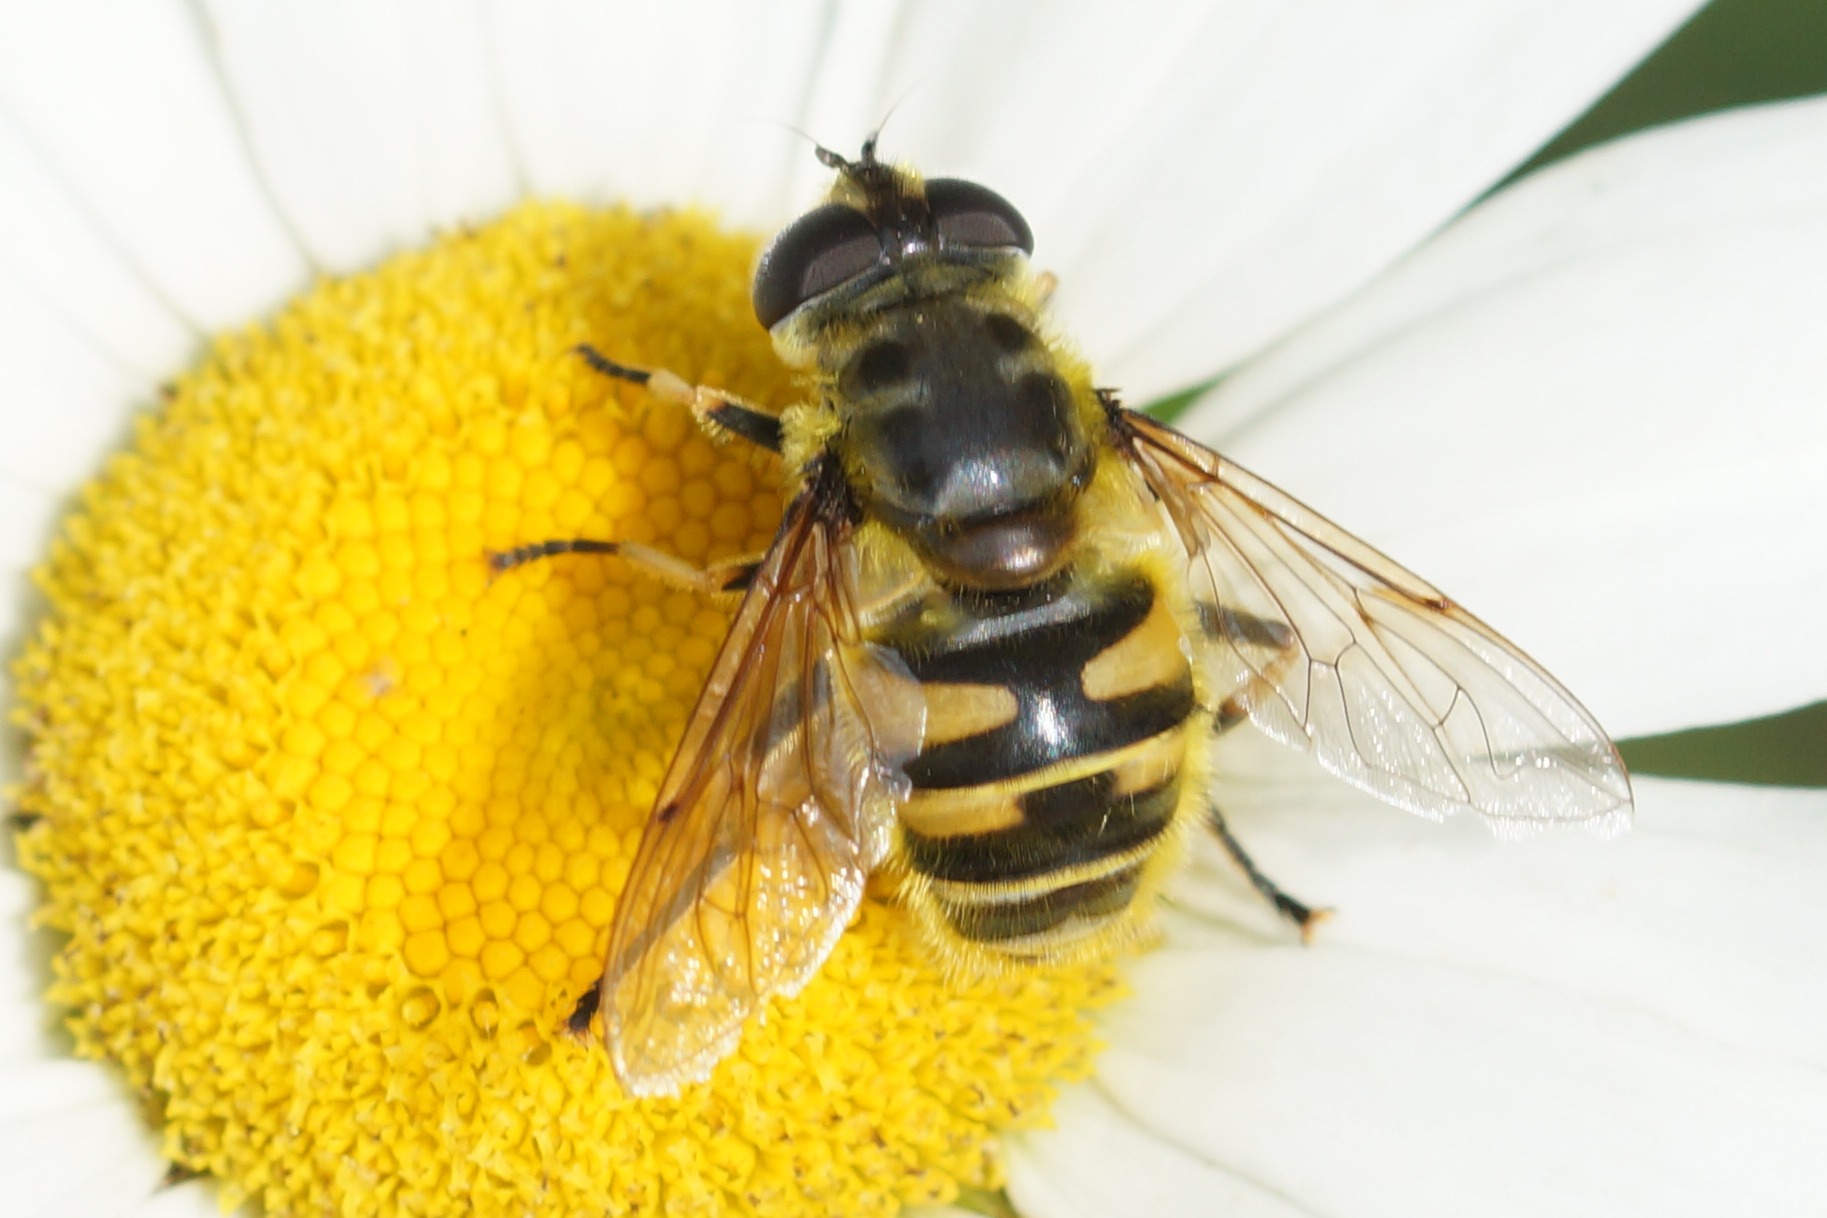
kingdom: Animalia
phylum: Arthropoda
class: Insecta
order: Diptera
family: Syrphidae
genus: Myathropa
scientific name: Myathropa florea
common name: Dødningehoved-svirreflue
